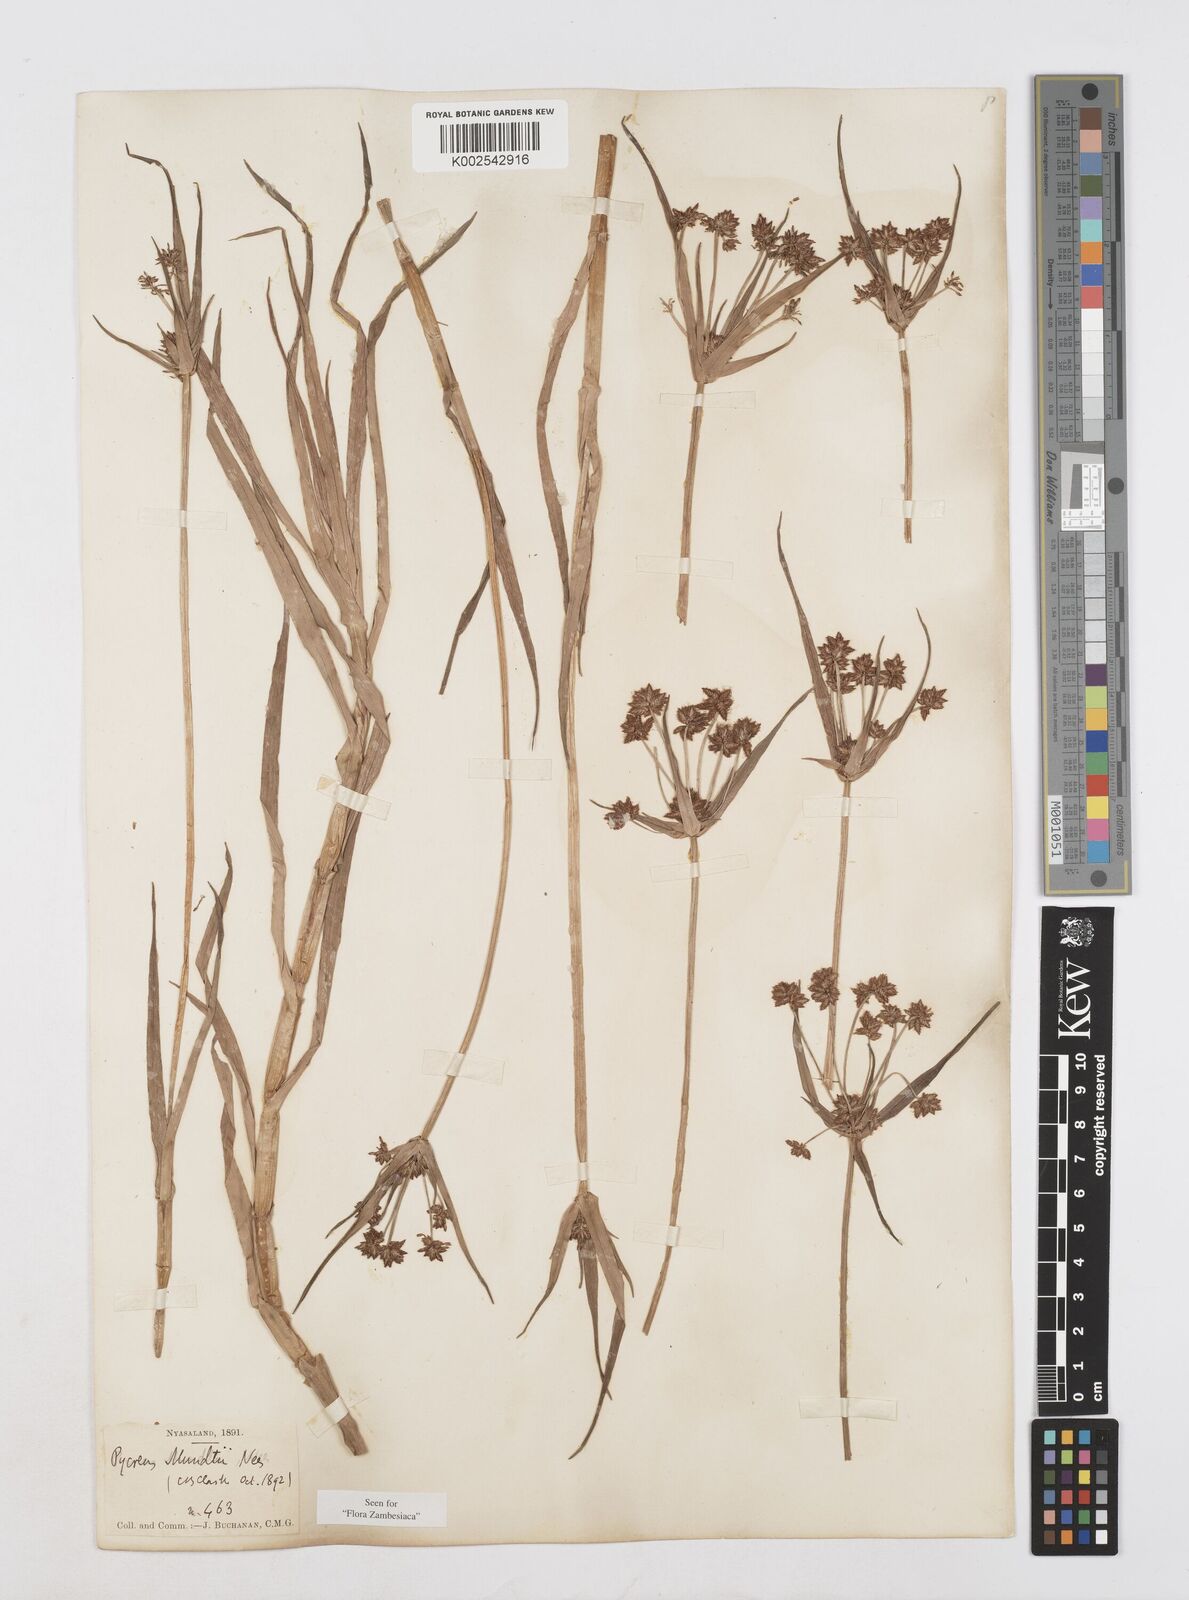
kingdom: Plantae
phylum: Tracheophyta
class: Liliopsida
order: Poales
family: Cyperaceae
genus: Cyperus
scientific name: Cyperus mundii
